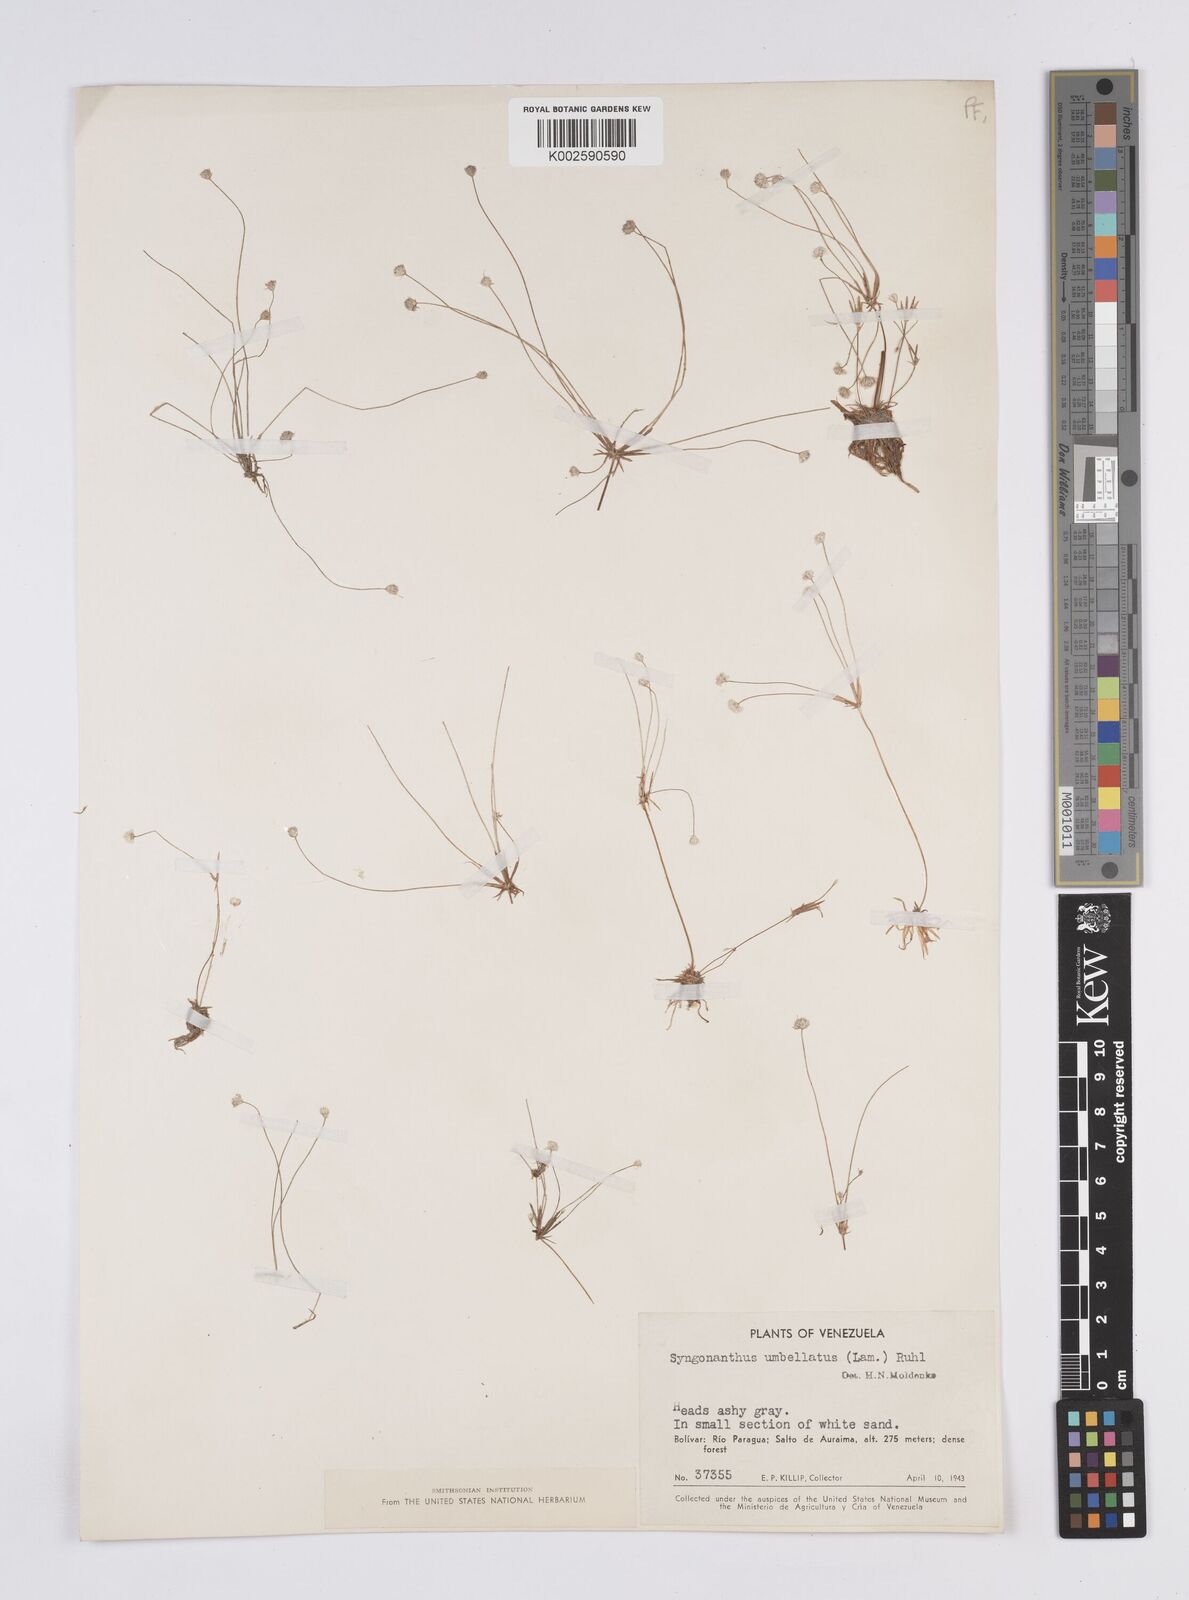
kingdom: Plantae
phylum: Tracheophyta
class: Liliopsida
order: Poales
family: Eriocaulaceae
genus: Syngonanthus
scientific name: Syngonanthus umbellatus
